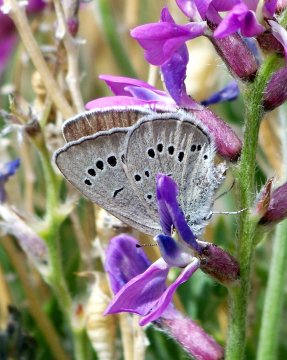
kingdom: Animalia
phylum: Arthropoda
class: Insecta
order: Lepidoptera
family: Lycaenidae
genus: Glaucopsyche
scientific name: Glaucopsyche lygdamus
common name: Silvery Blue
